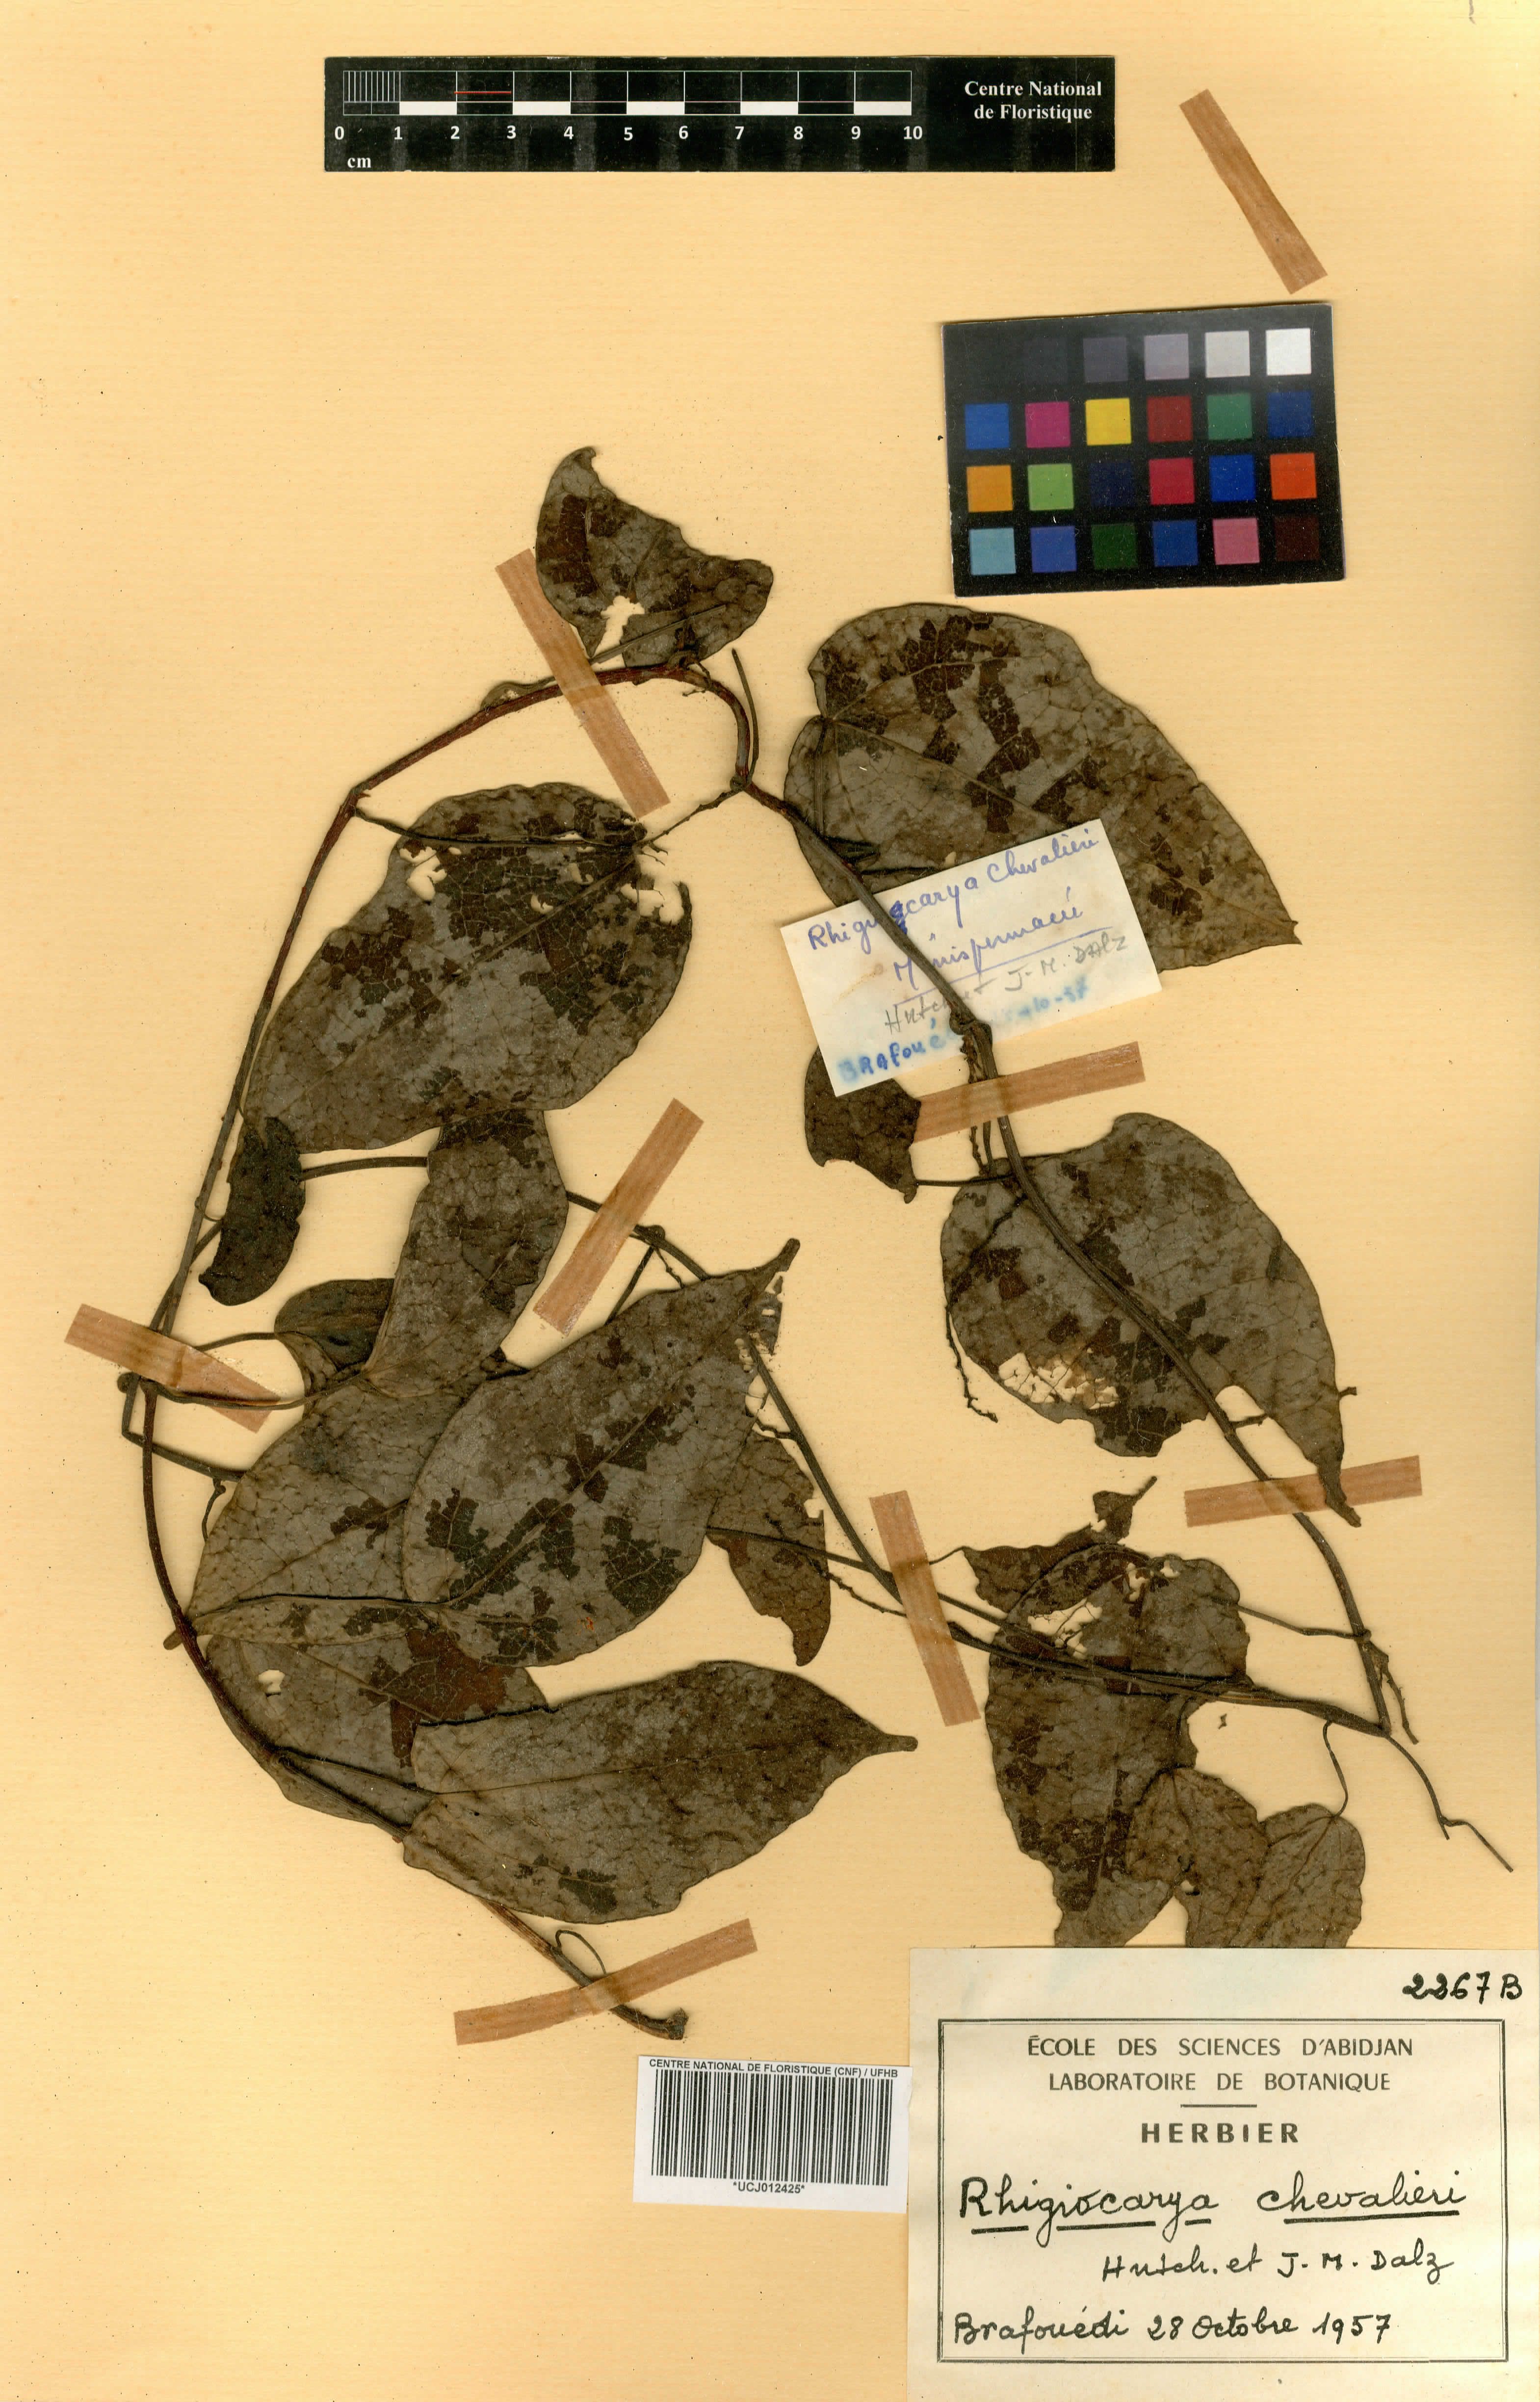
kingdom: Plantae
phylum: Tracheophyta
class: Magnoliopsida
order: Ranunculales
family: Menispermaceae
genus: Kolobopetalum
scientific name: Kolobopetalum chevalieri
